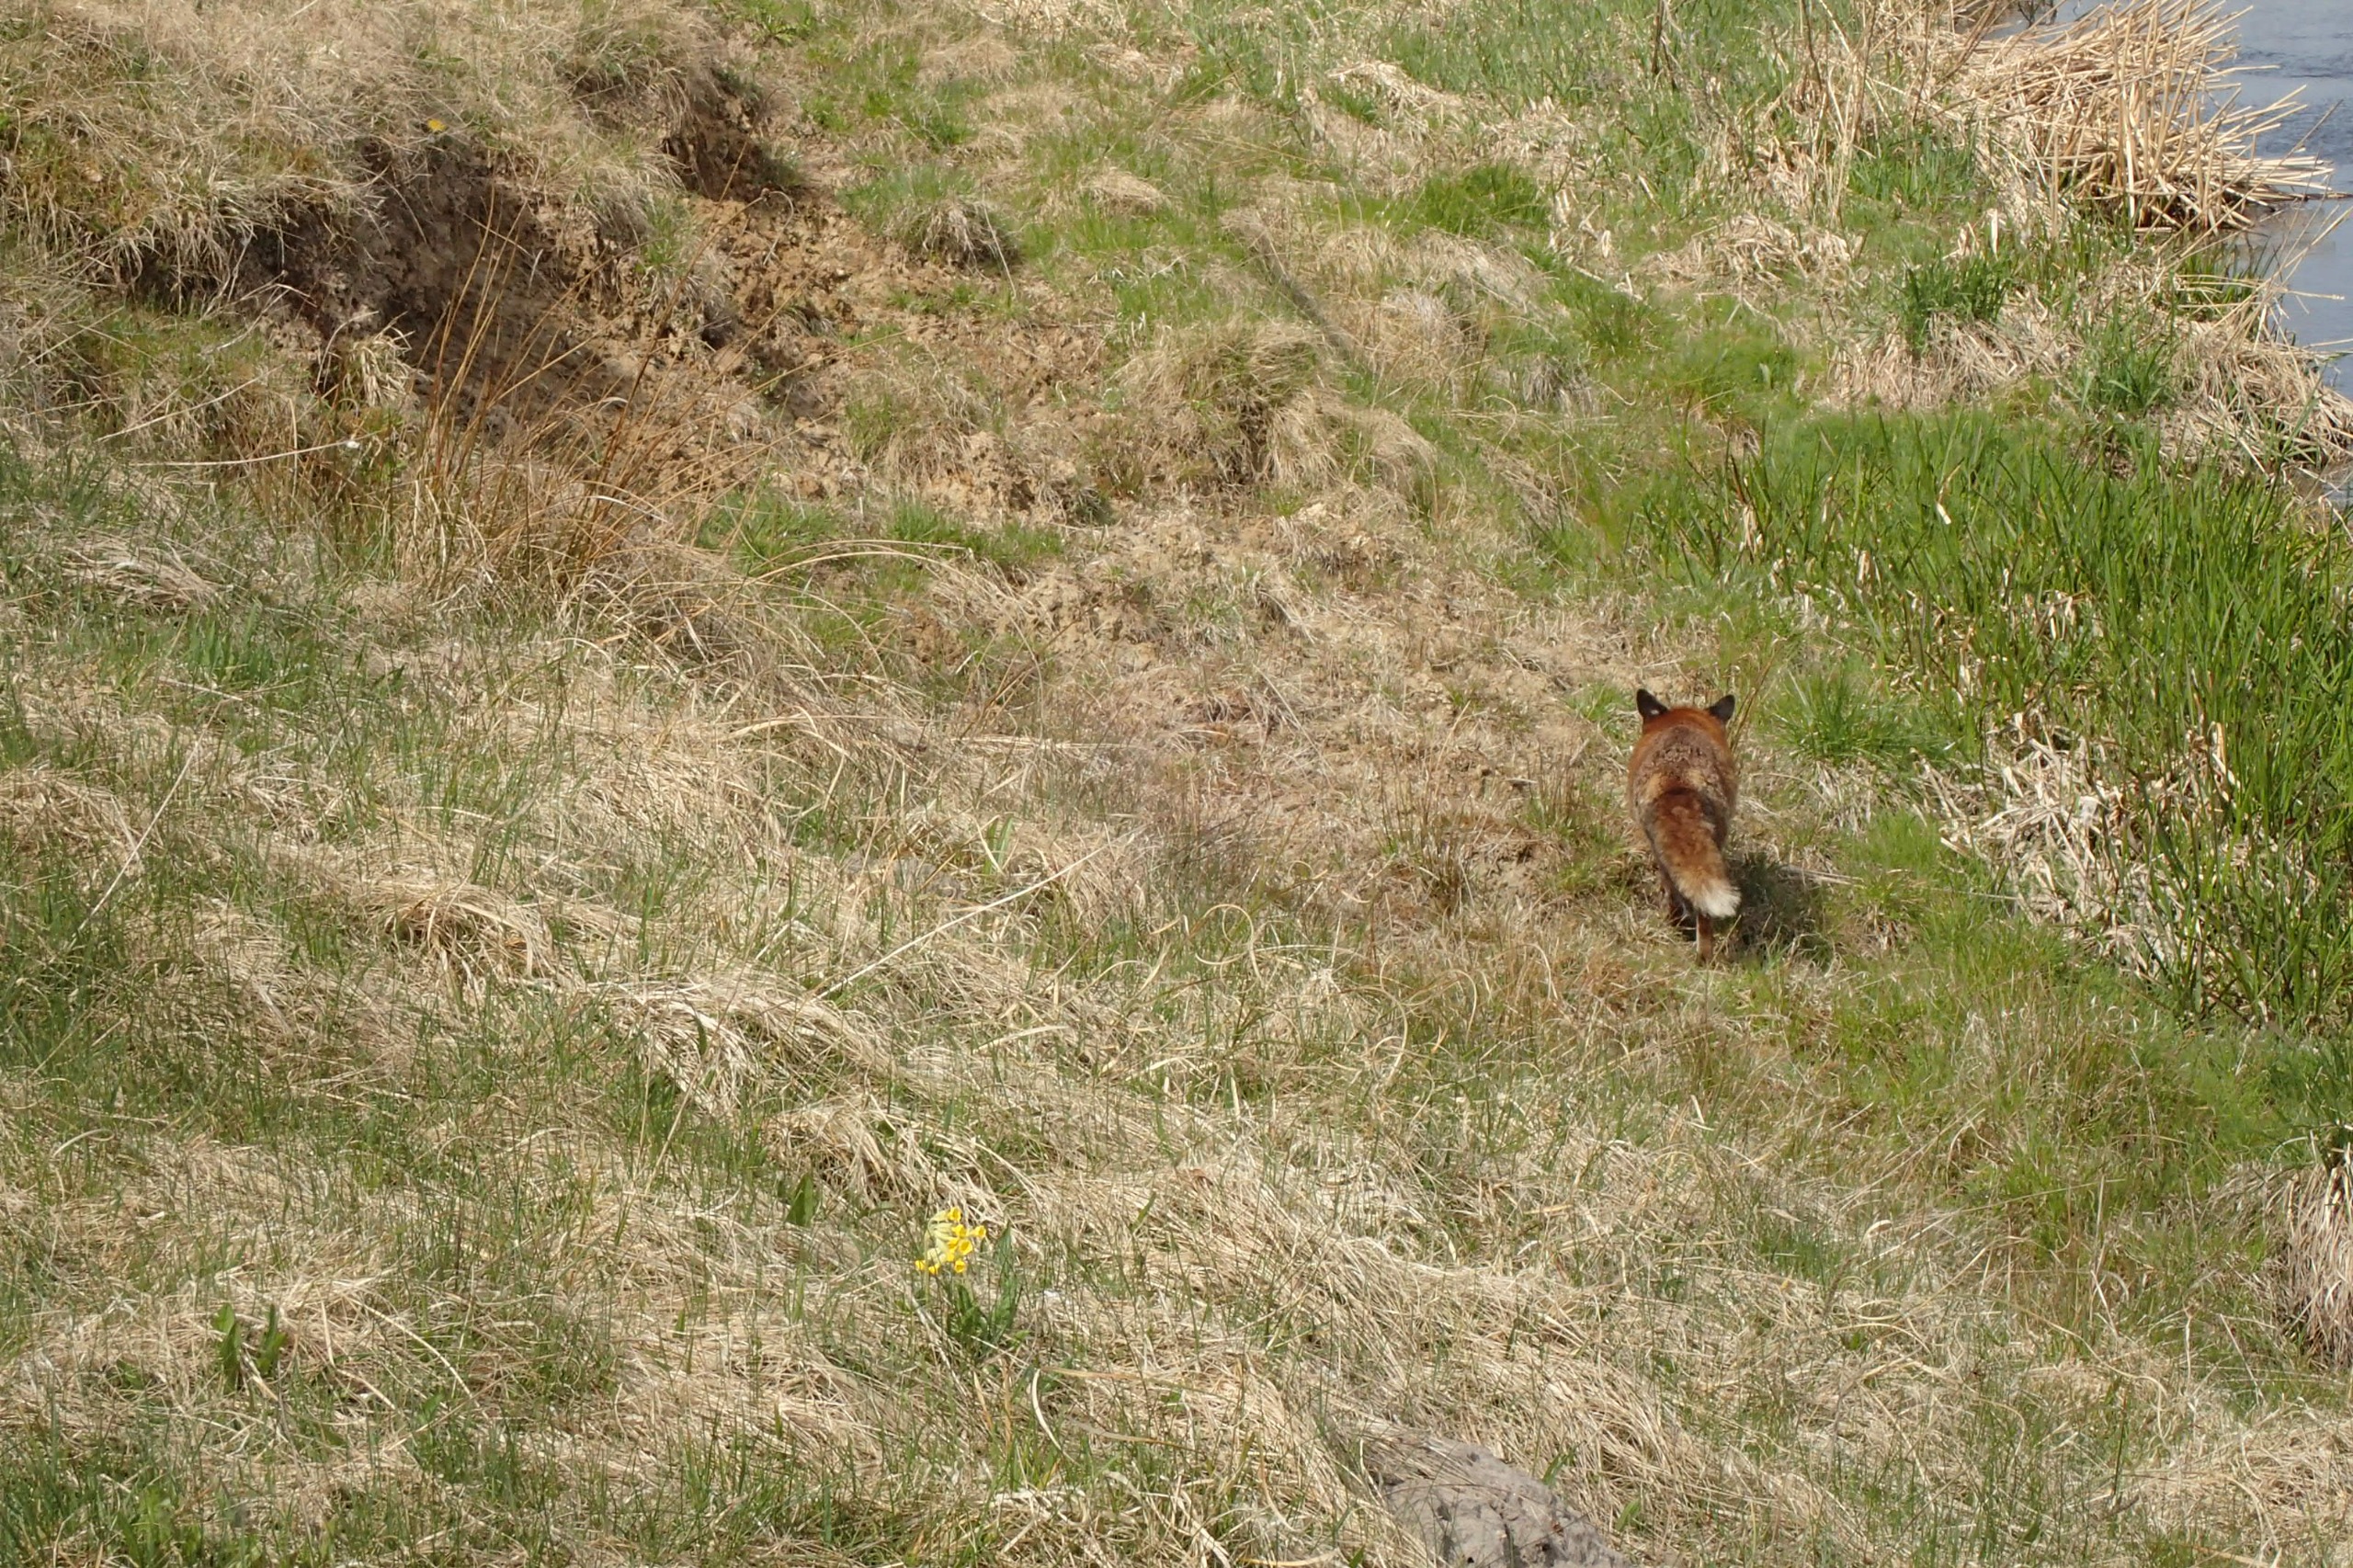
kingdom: Animalia
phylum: Chordata
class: Mammalia
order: Carnivora
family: Canidae
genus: Vulpes
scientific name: Vulpes vulpes
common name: Ræv
